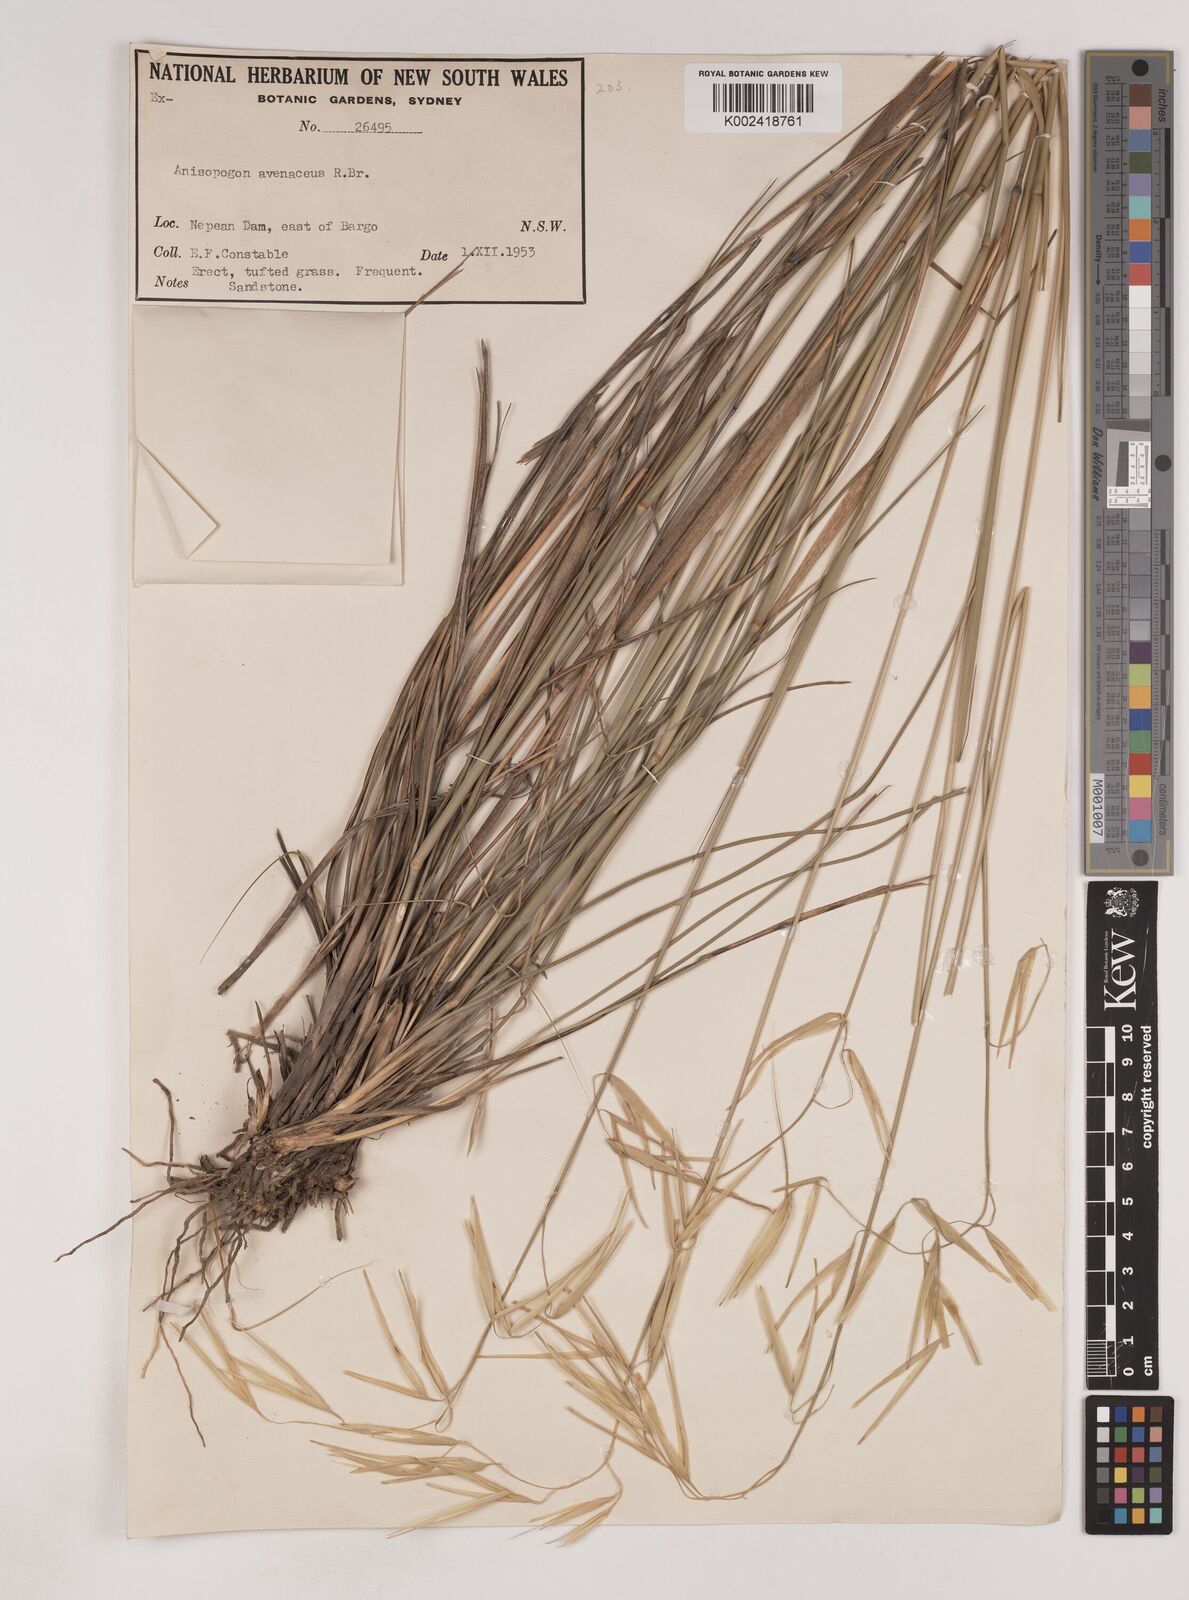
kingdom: Plantae
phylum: Tracheophyta
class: Liliopsida
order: Poales
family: Poaceae
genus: Anisopogon
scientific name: Anisopogon avenaceus
